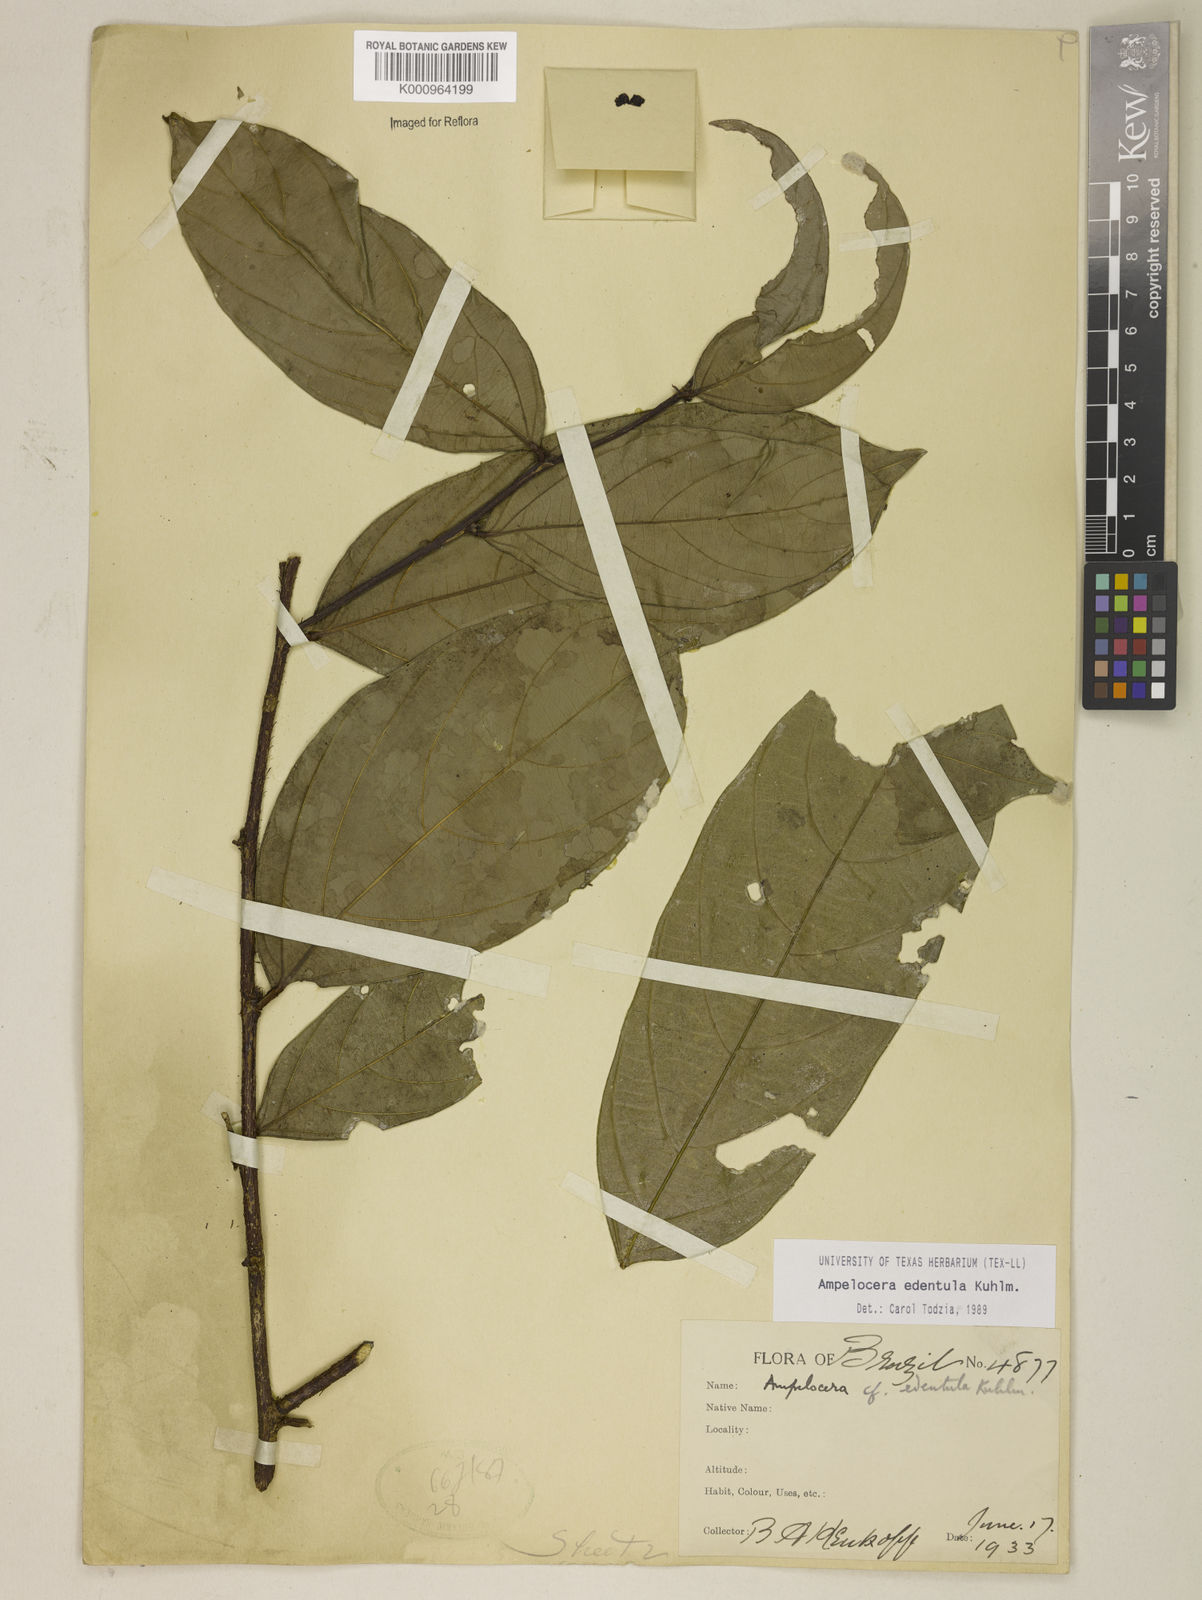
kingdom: Plantae
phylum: Tracheophyta
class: Magnoliopsida
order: Rosales
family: Cannabaceae
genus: Ampelocera
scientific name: Ampelocera edentula
